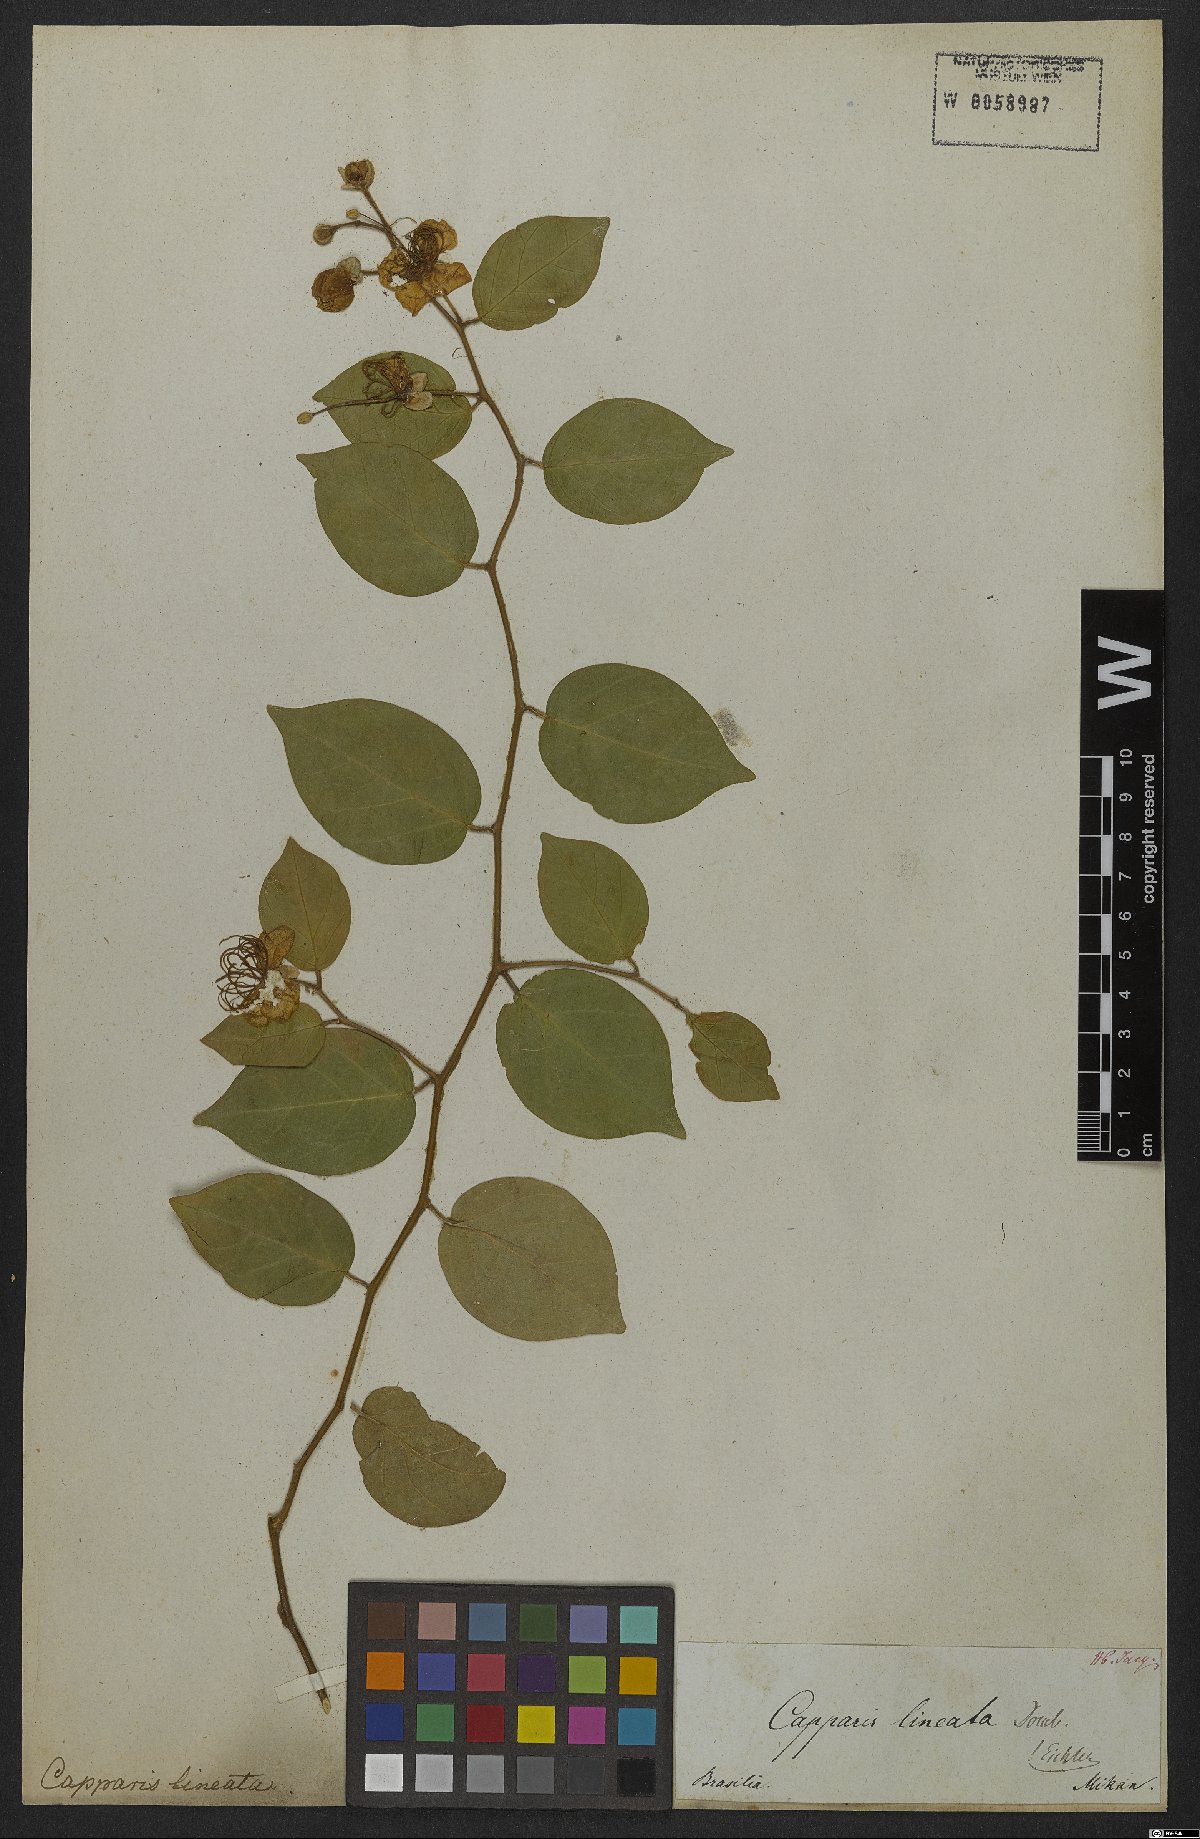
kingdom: Plantae
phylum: Tracheophyta
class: Magnoliopsida
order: Brassicales
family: Capparaceae
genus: Mesocapparis
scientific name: Mesocapparis lineata
